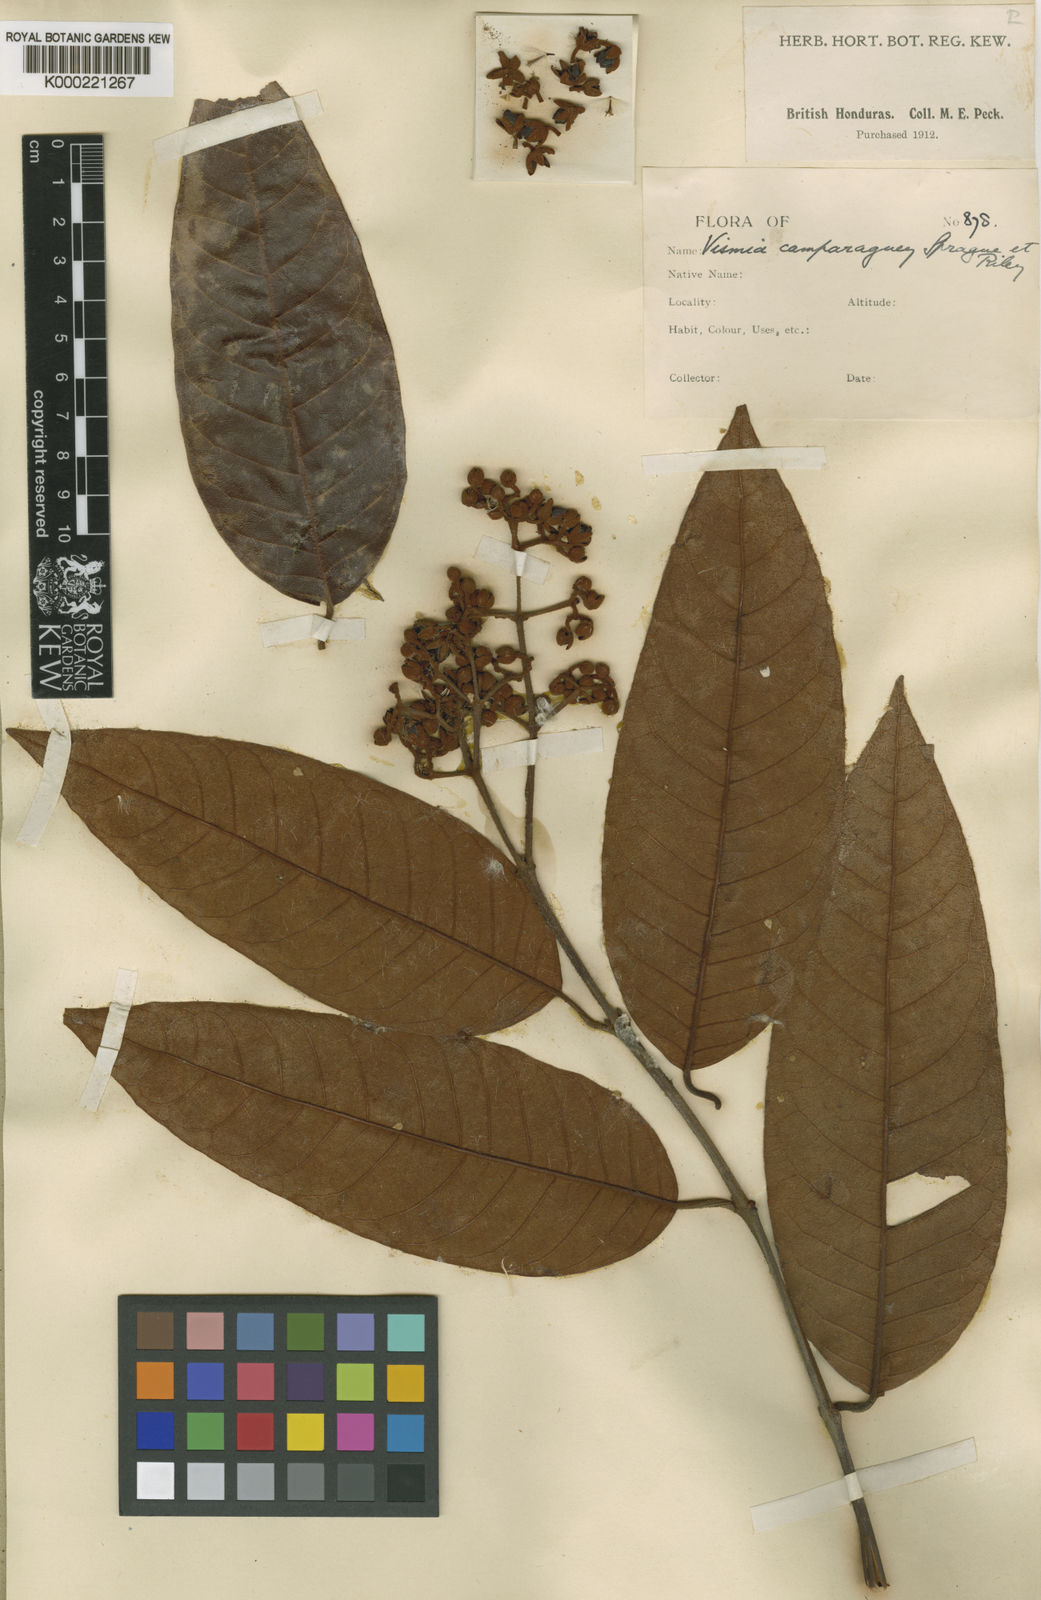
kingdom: Plantae
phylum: Tracheophyta
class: Magnoliopsida
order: Malpighiales
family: Hypericaceae
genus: Vismia
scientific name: Vismia camparaguey
